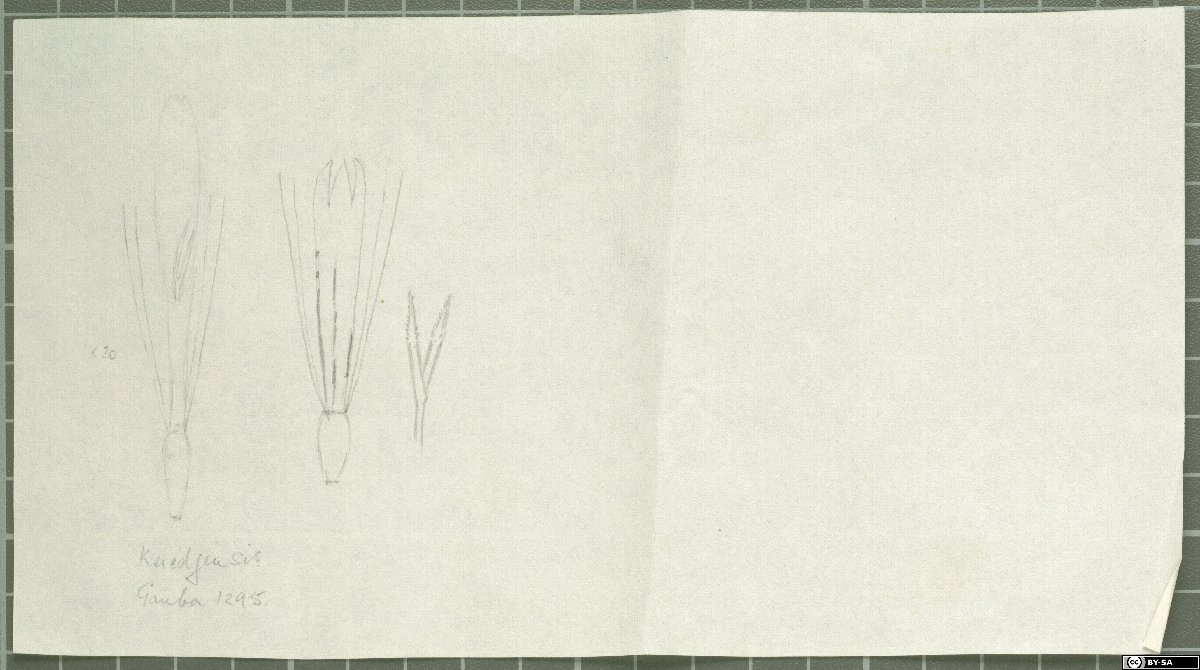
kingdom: Plantae
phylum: Tracheophyta
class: Magnoliopsida
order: Asterales
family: Asteraceae
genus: Chamaegeron
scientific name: Chamaegeron keredjensis
